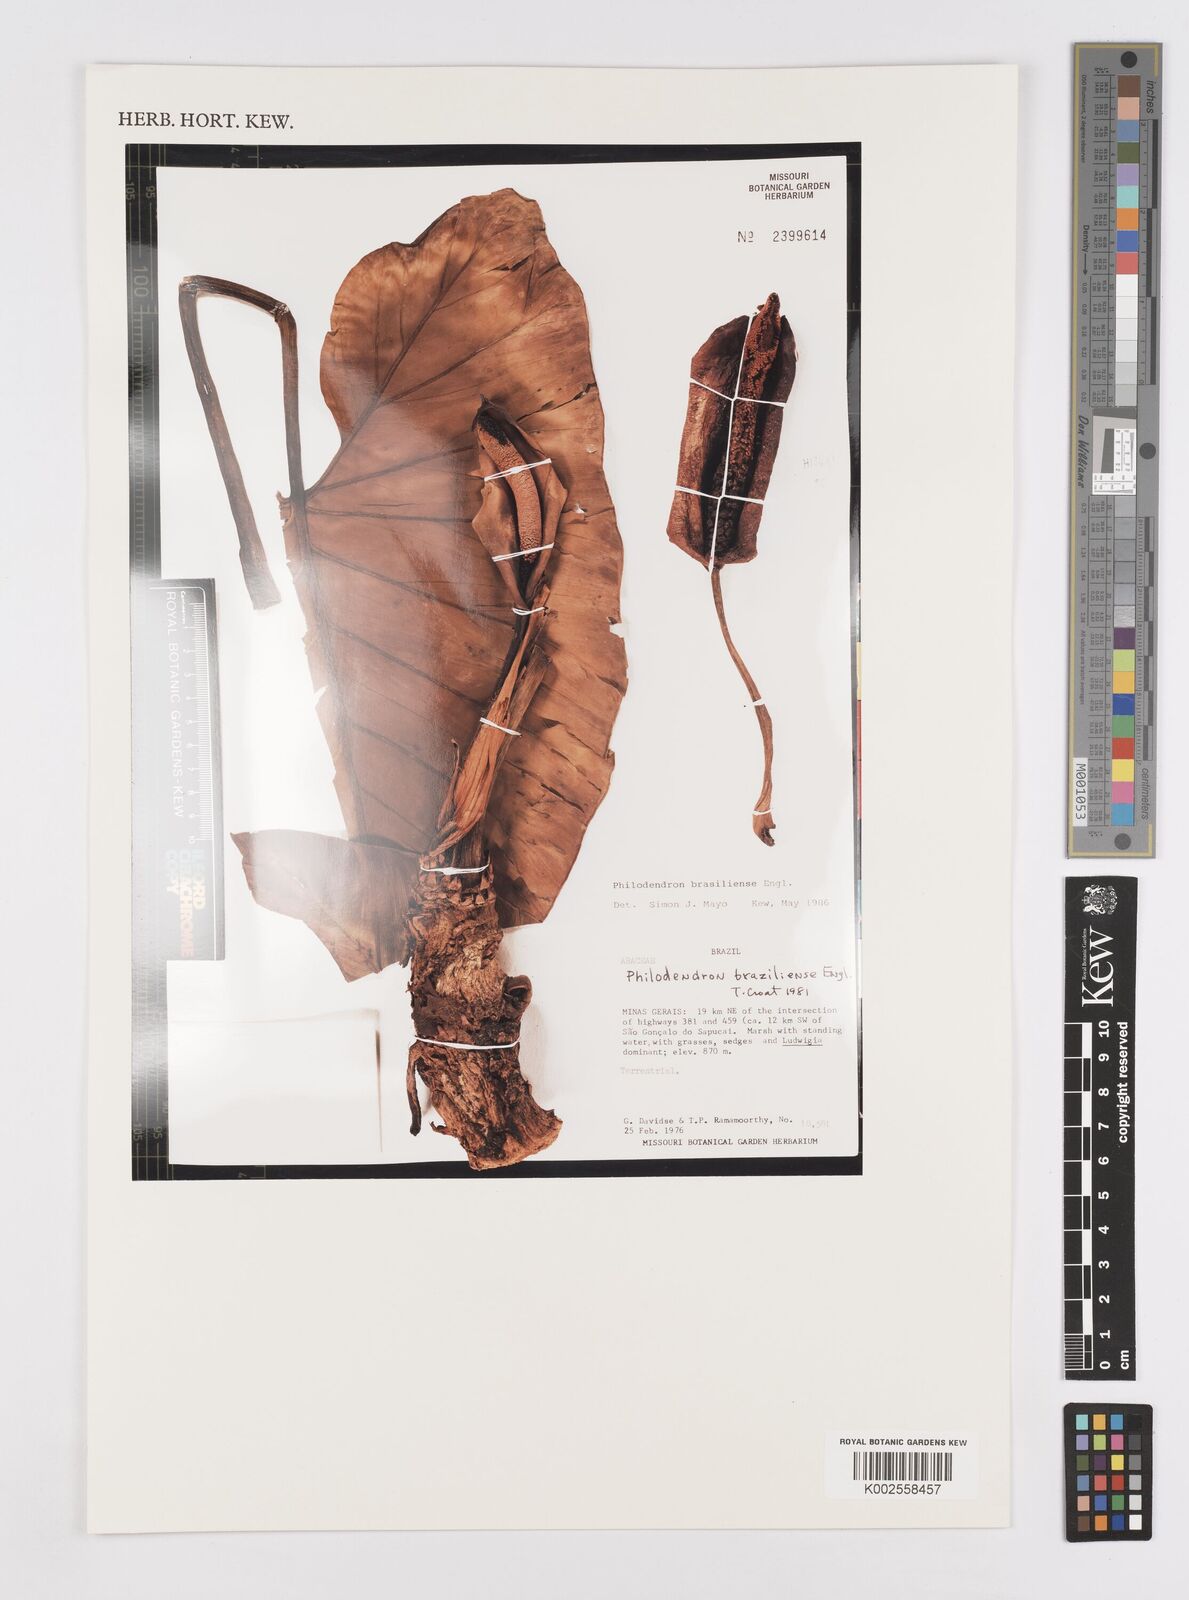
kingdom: Plantae
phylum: Tracheophyta
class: Liliopsida
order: Alismatales
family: Araceae
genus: Thaumatophyllum
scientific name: Thaumatophyllum brasiliense
